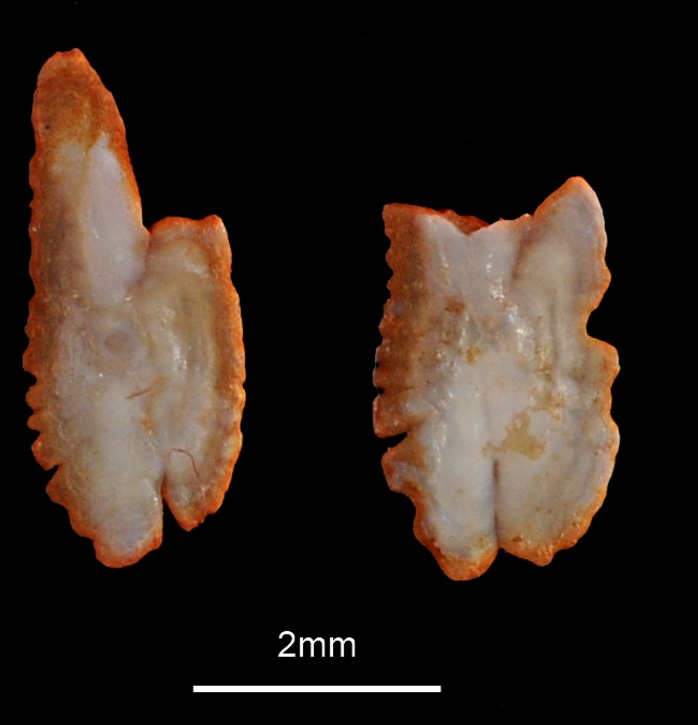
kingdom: Animalia
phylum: Chordata
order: Clupeiformes
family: Clupeidae
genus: Clupea
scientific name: Clupea harengus
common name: Herring
